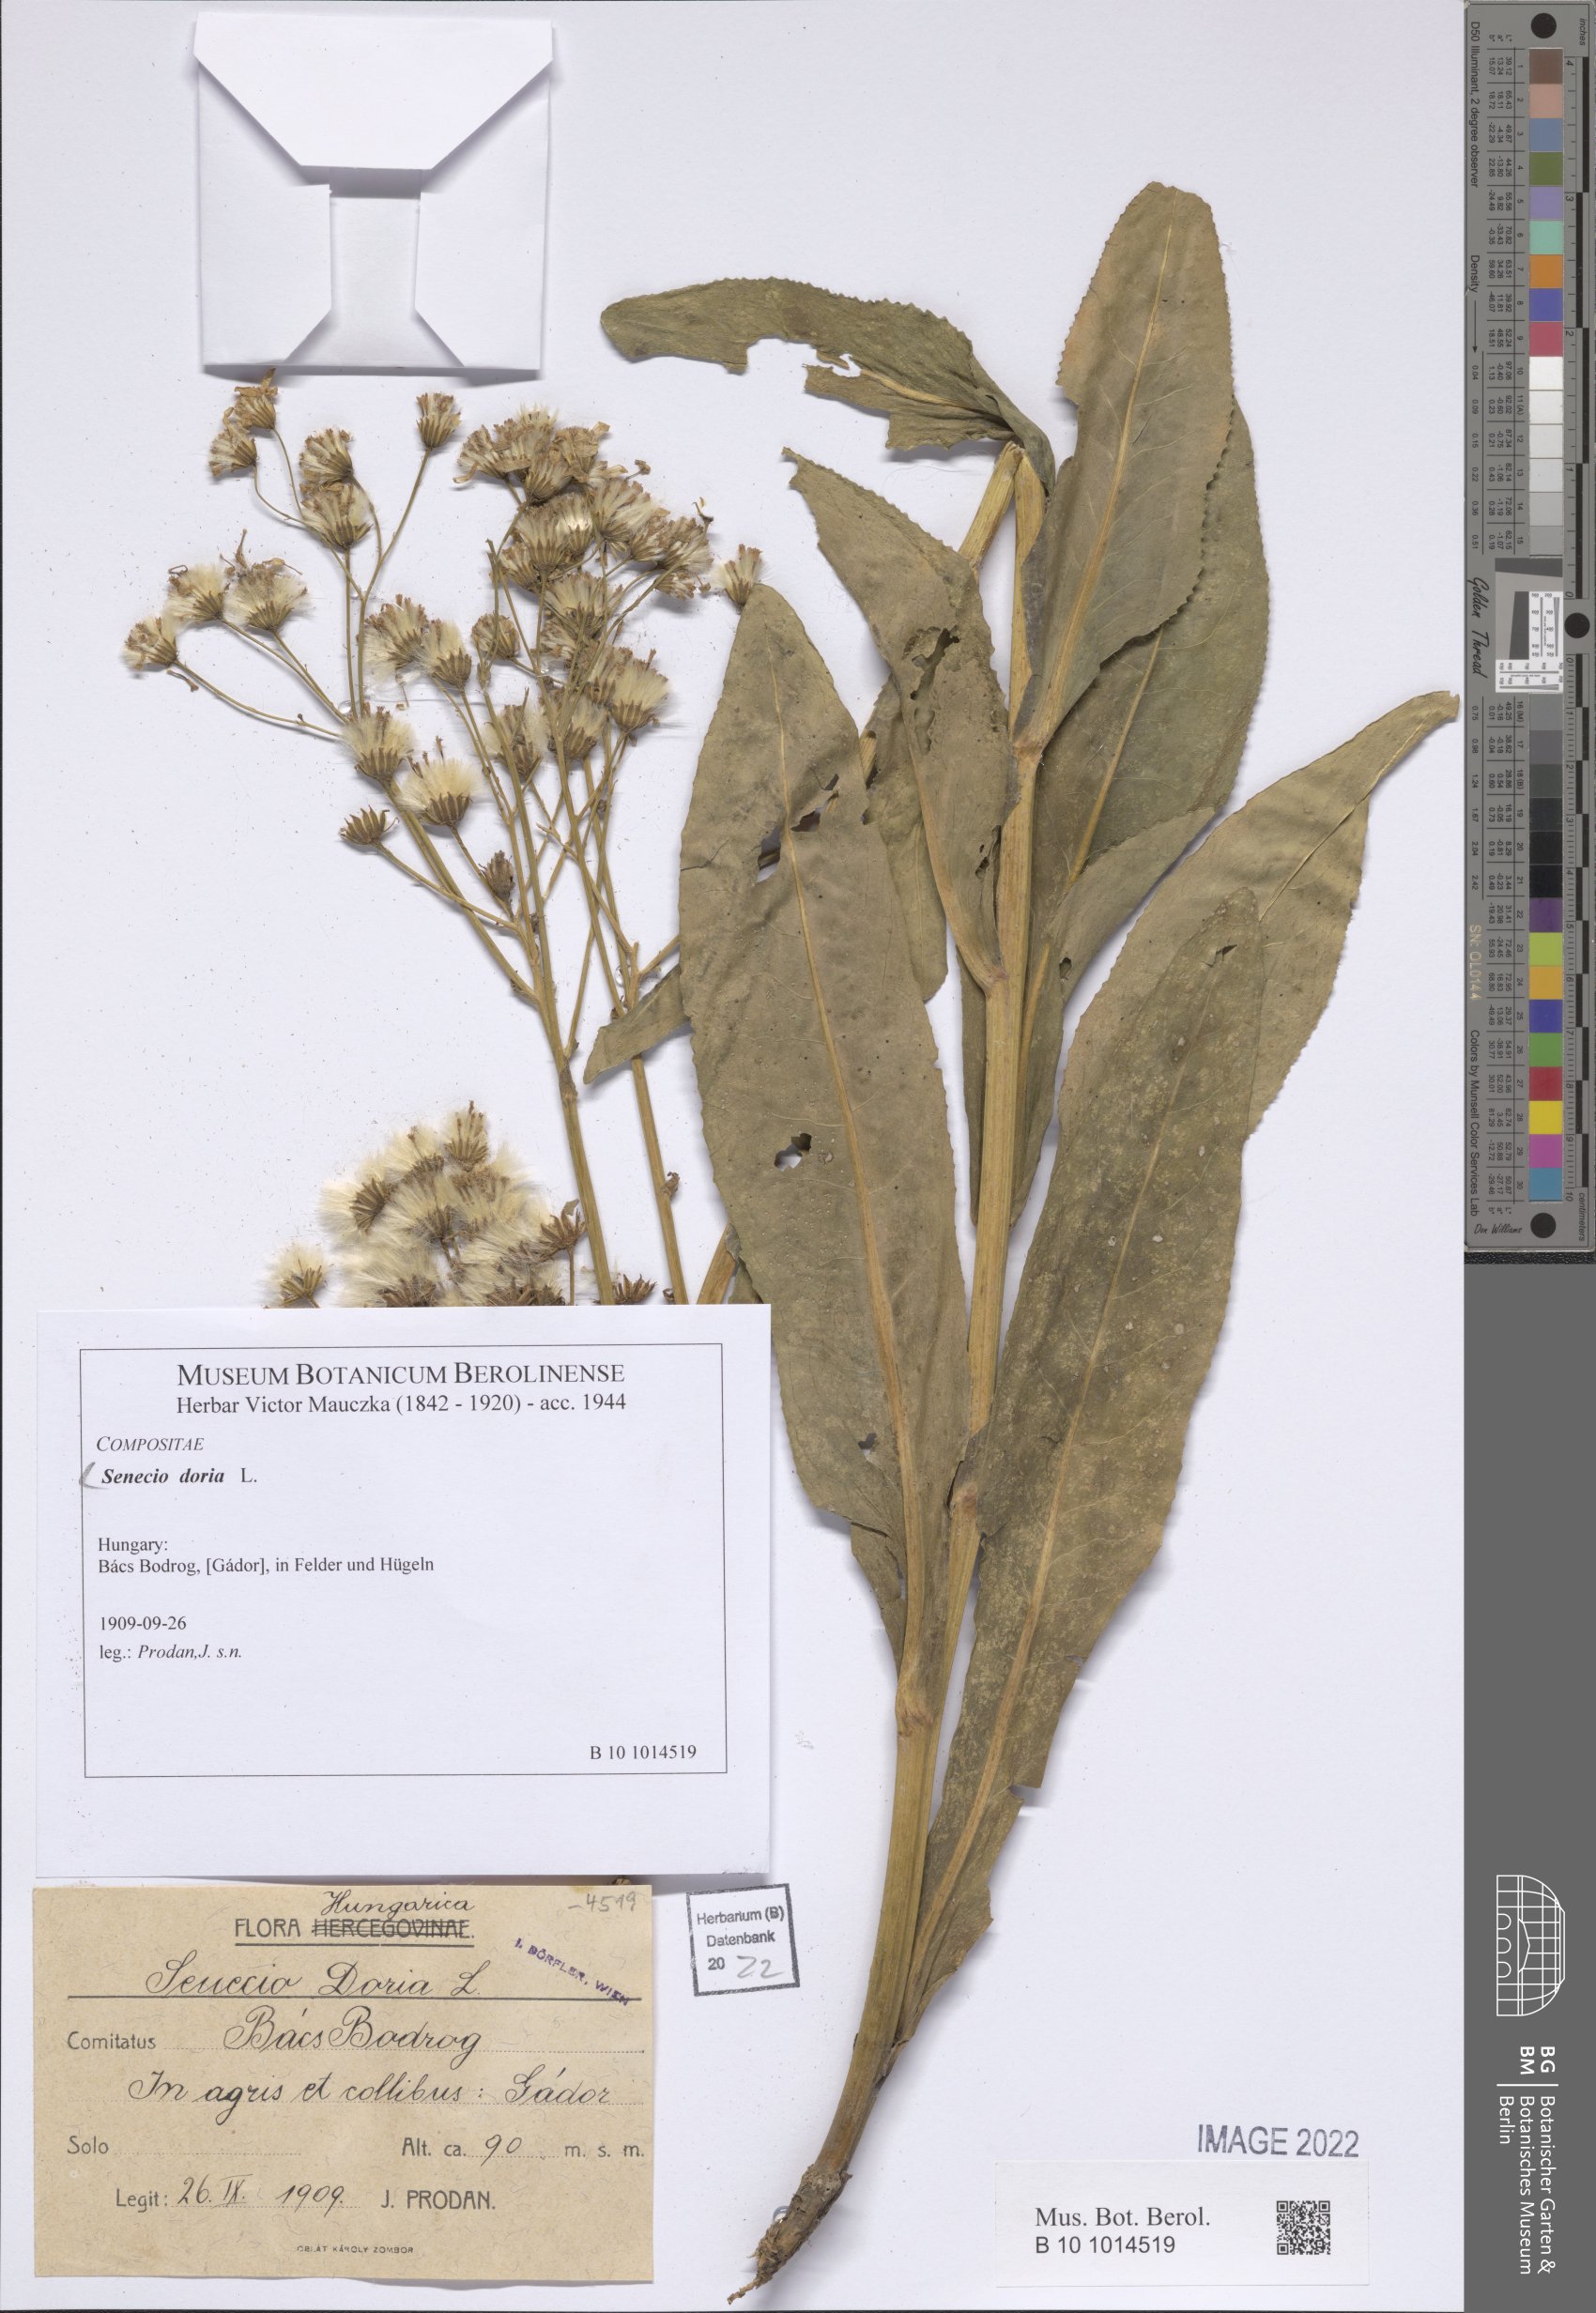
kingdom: Plantae
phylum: Tracheophyta
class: Magnoliopsida
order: Asterales
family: Asteraceae
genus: Senecio
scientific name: Senecio doria
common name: Golden ragwort
